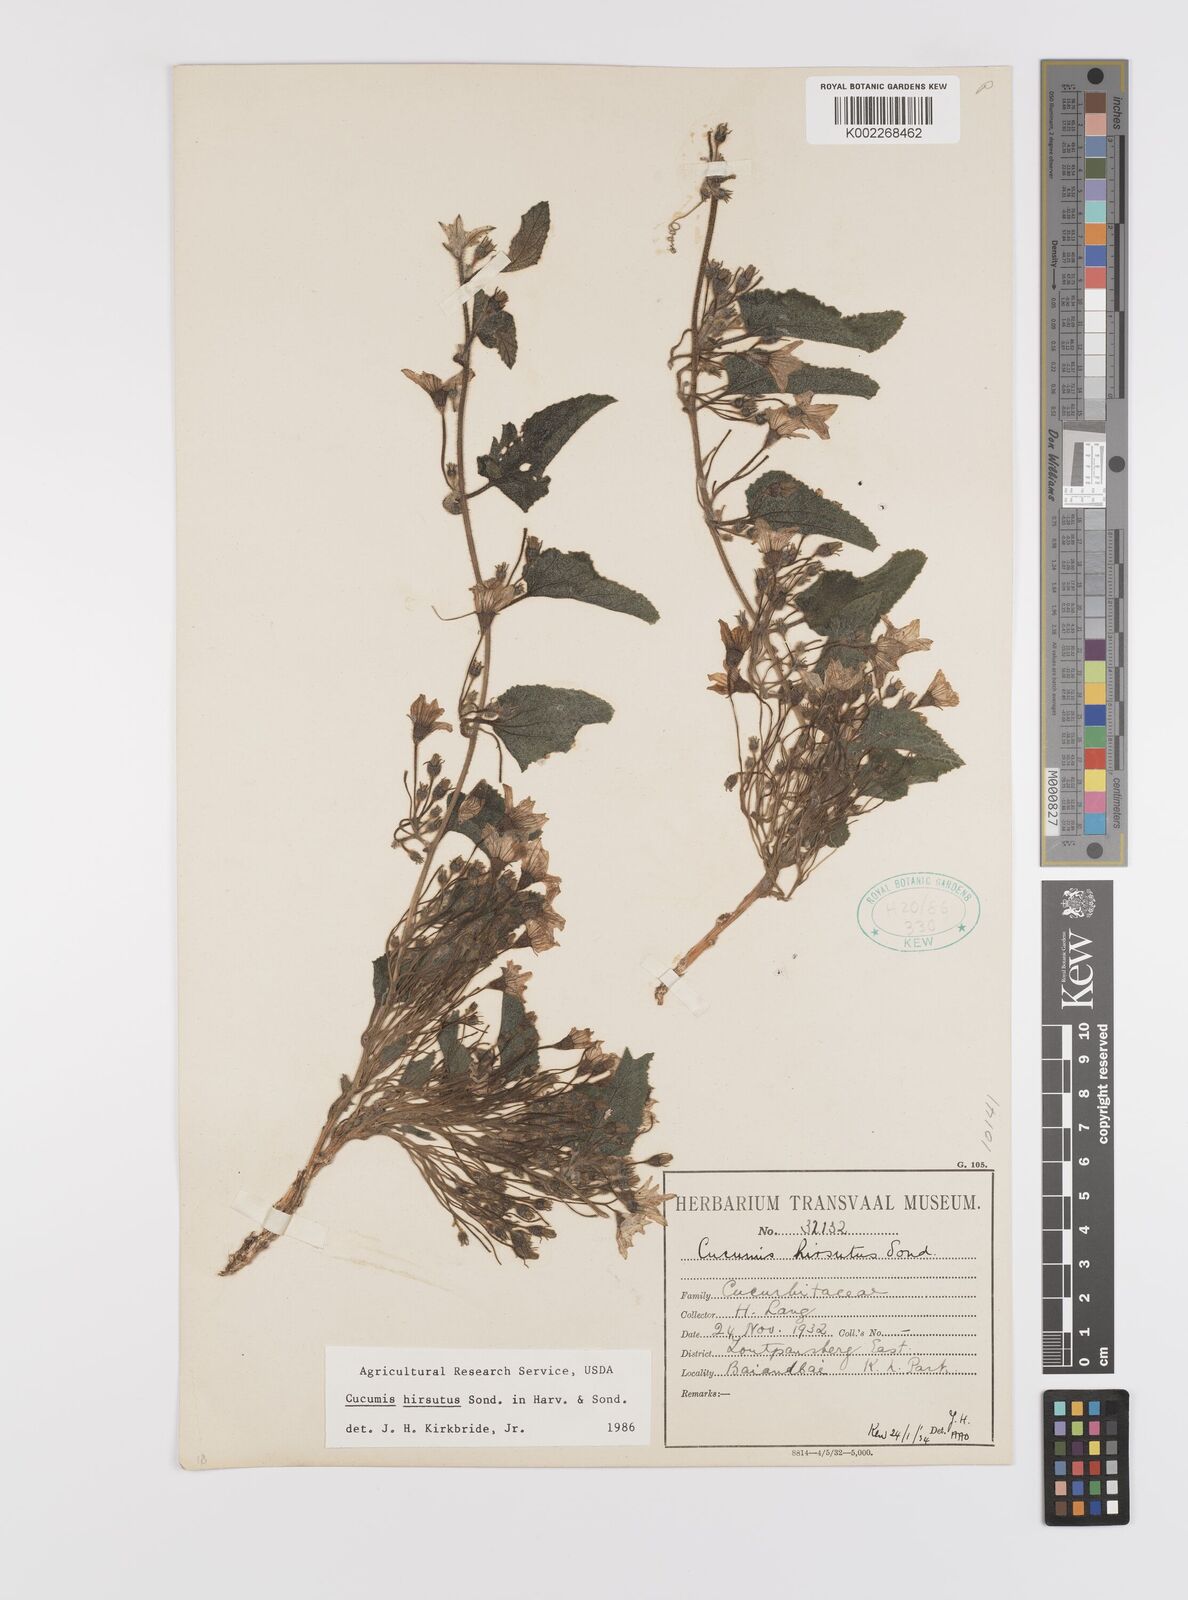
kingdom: Plantae
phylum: Tracheophyta
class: Magnoliopsida
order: Cucurbitales
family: Cucurbitaceae
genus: Cucumis
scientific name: Cucumis hirsutus
